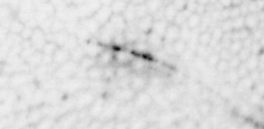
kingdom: Animalia
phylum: Chordata
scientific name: Chordata
